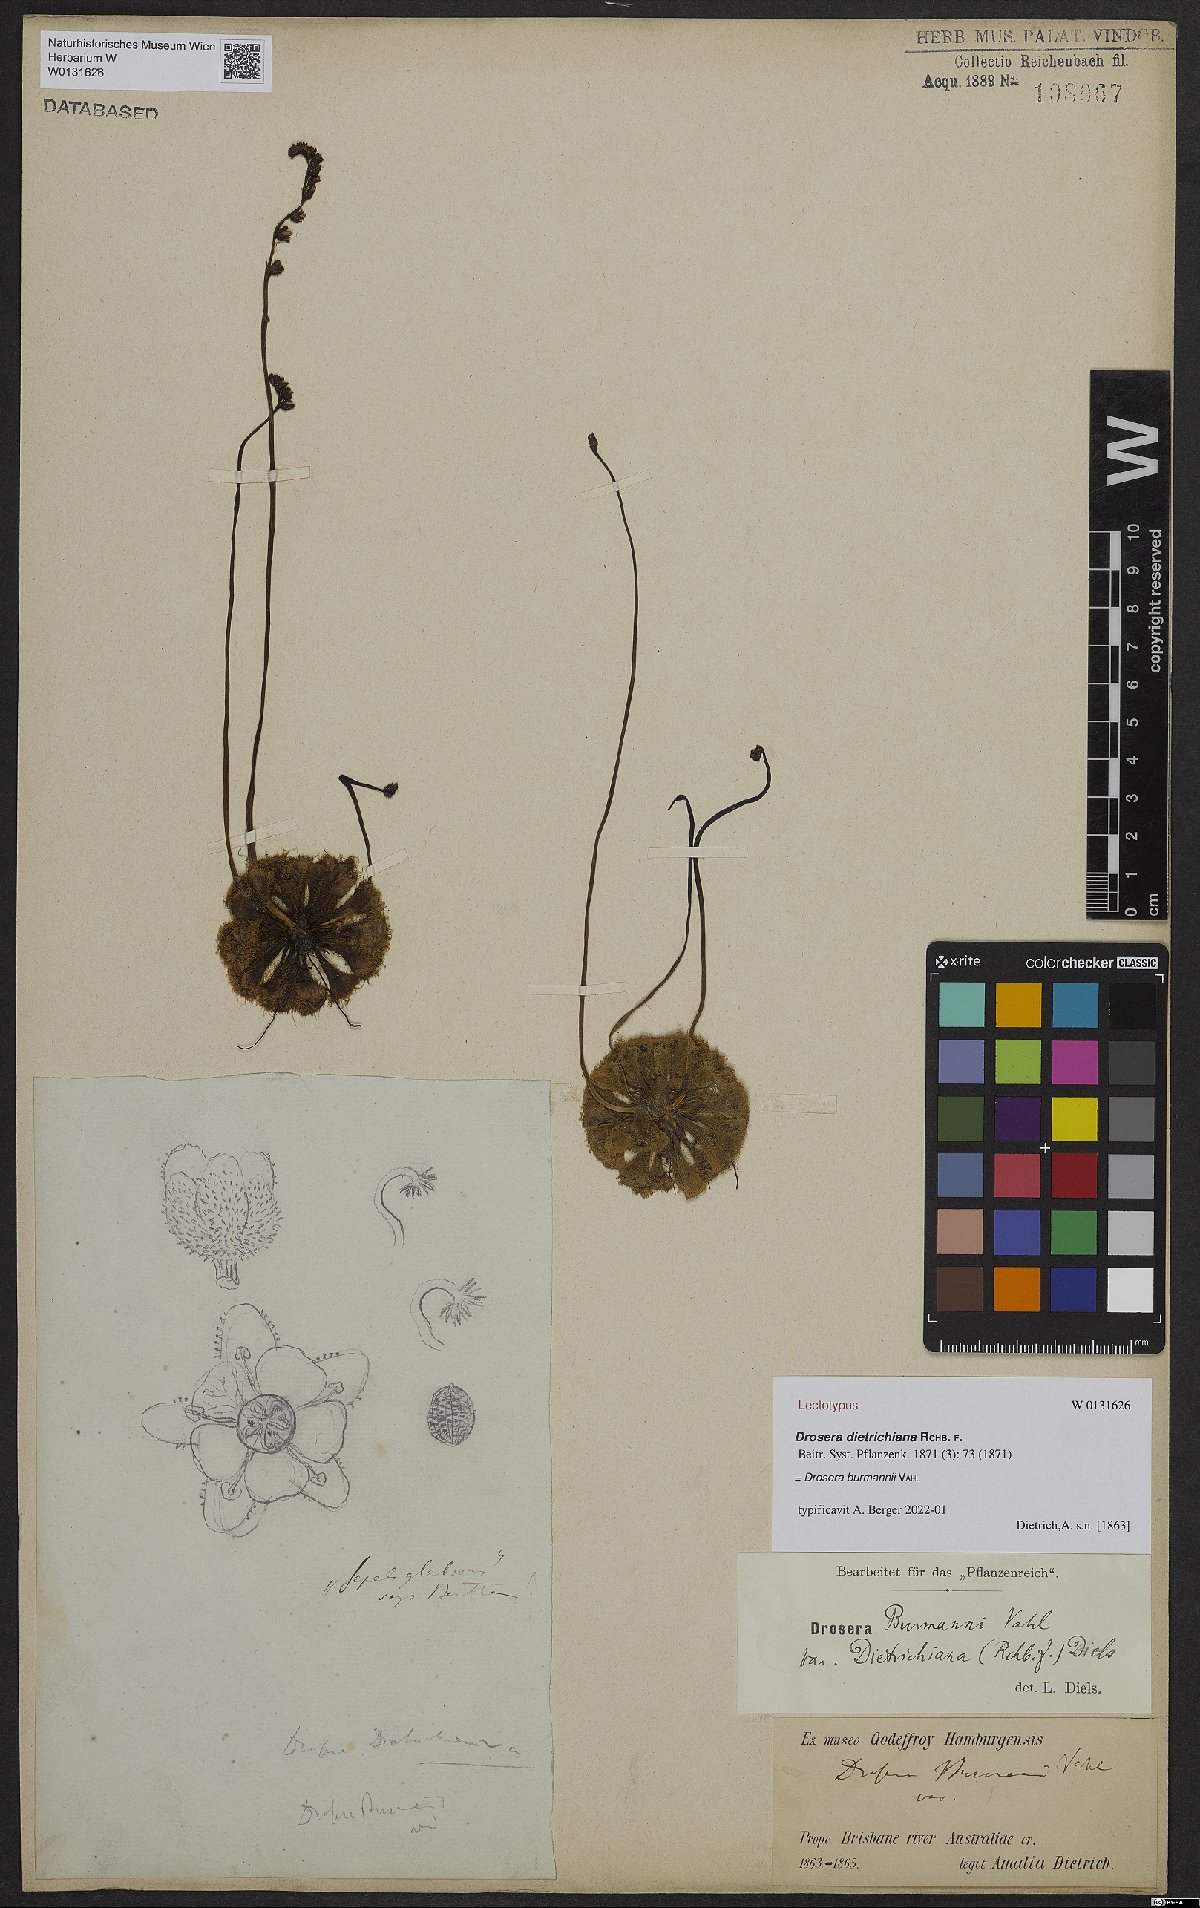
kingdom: Plantae
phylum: Tracheophyta
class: Magnoliopsida
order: Caryophyllales
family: Droseraceae
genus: Drosera
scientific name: Drosera burmannii
